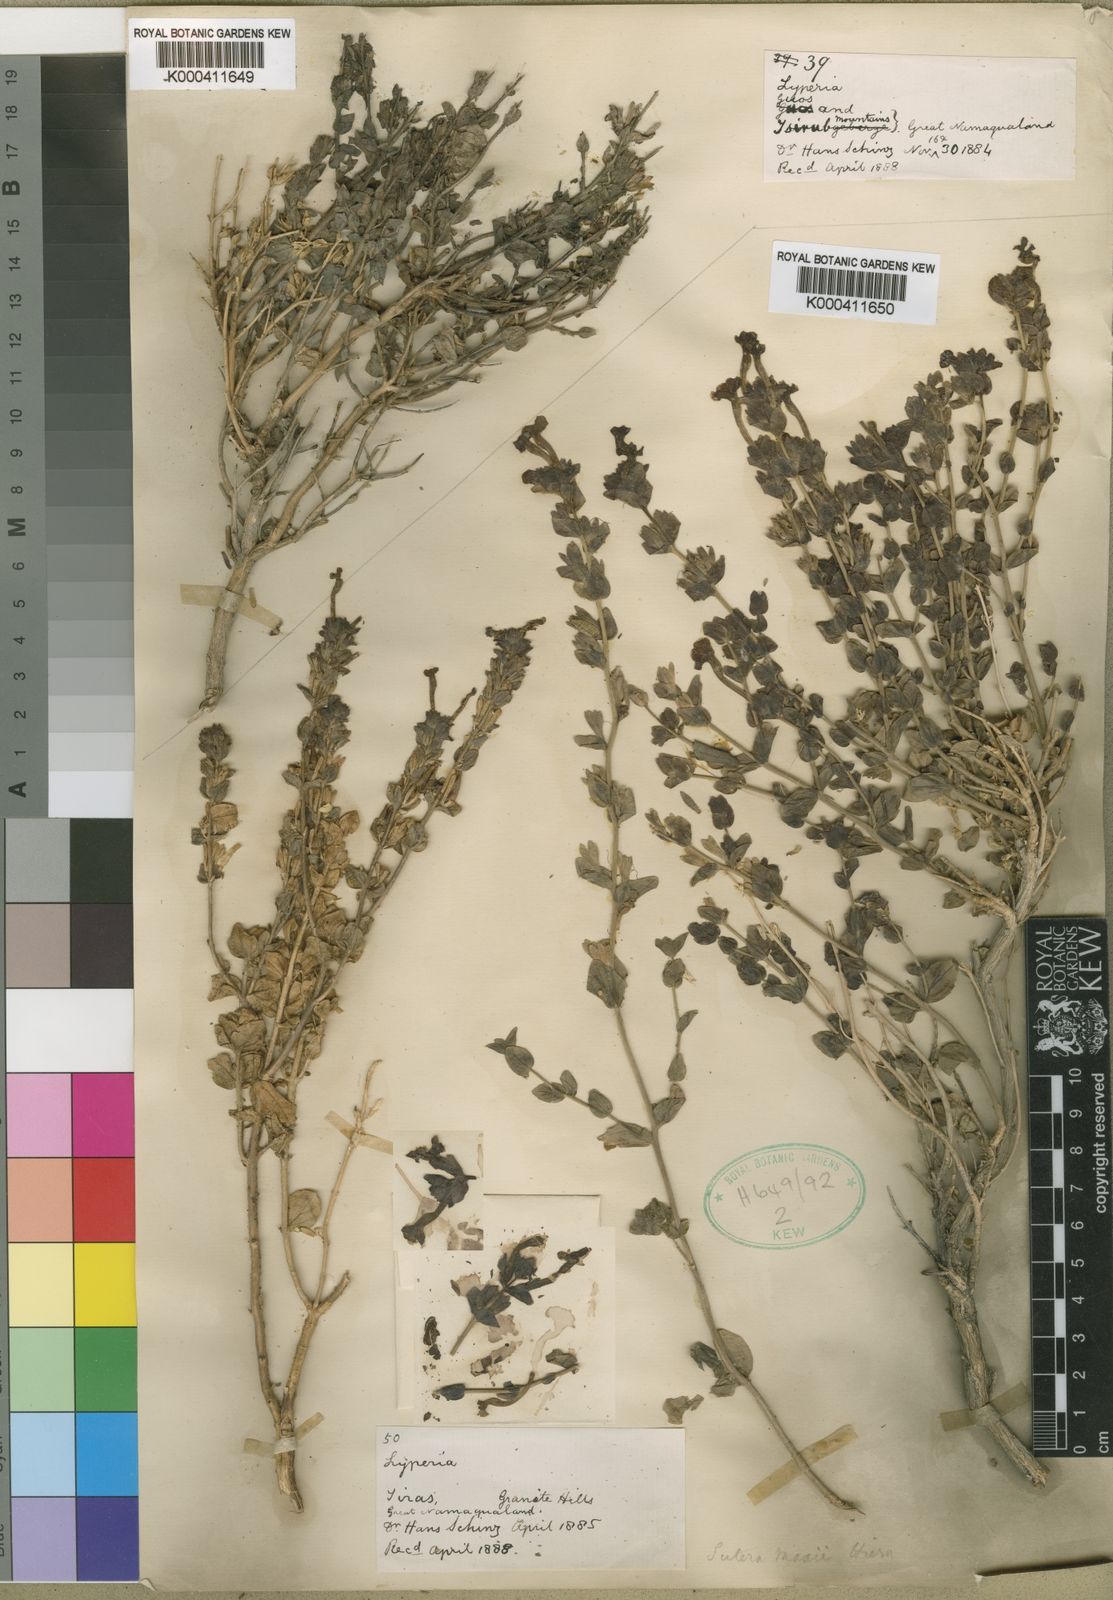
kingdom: Plantae
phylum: Tracheophyta
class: Magnoliopsida
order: Lamiales
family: Scrophulariaceae
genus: Jamesbrittenia
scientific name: Jamesbrittenia maxii
